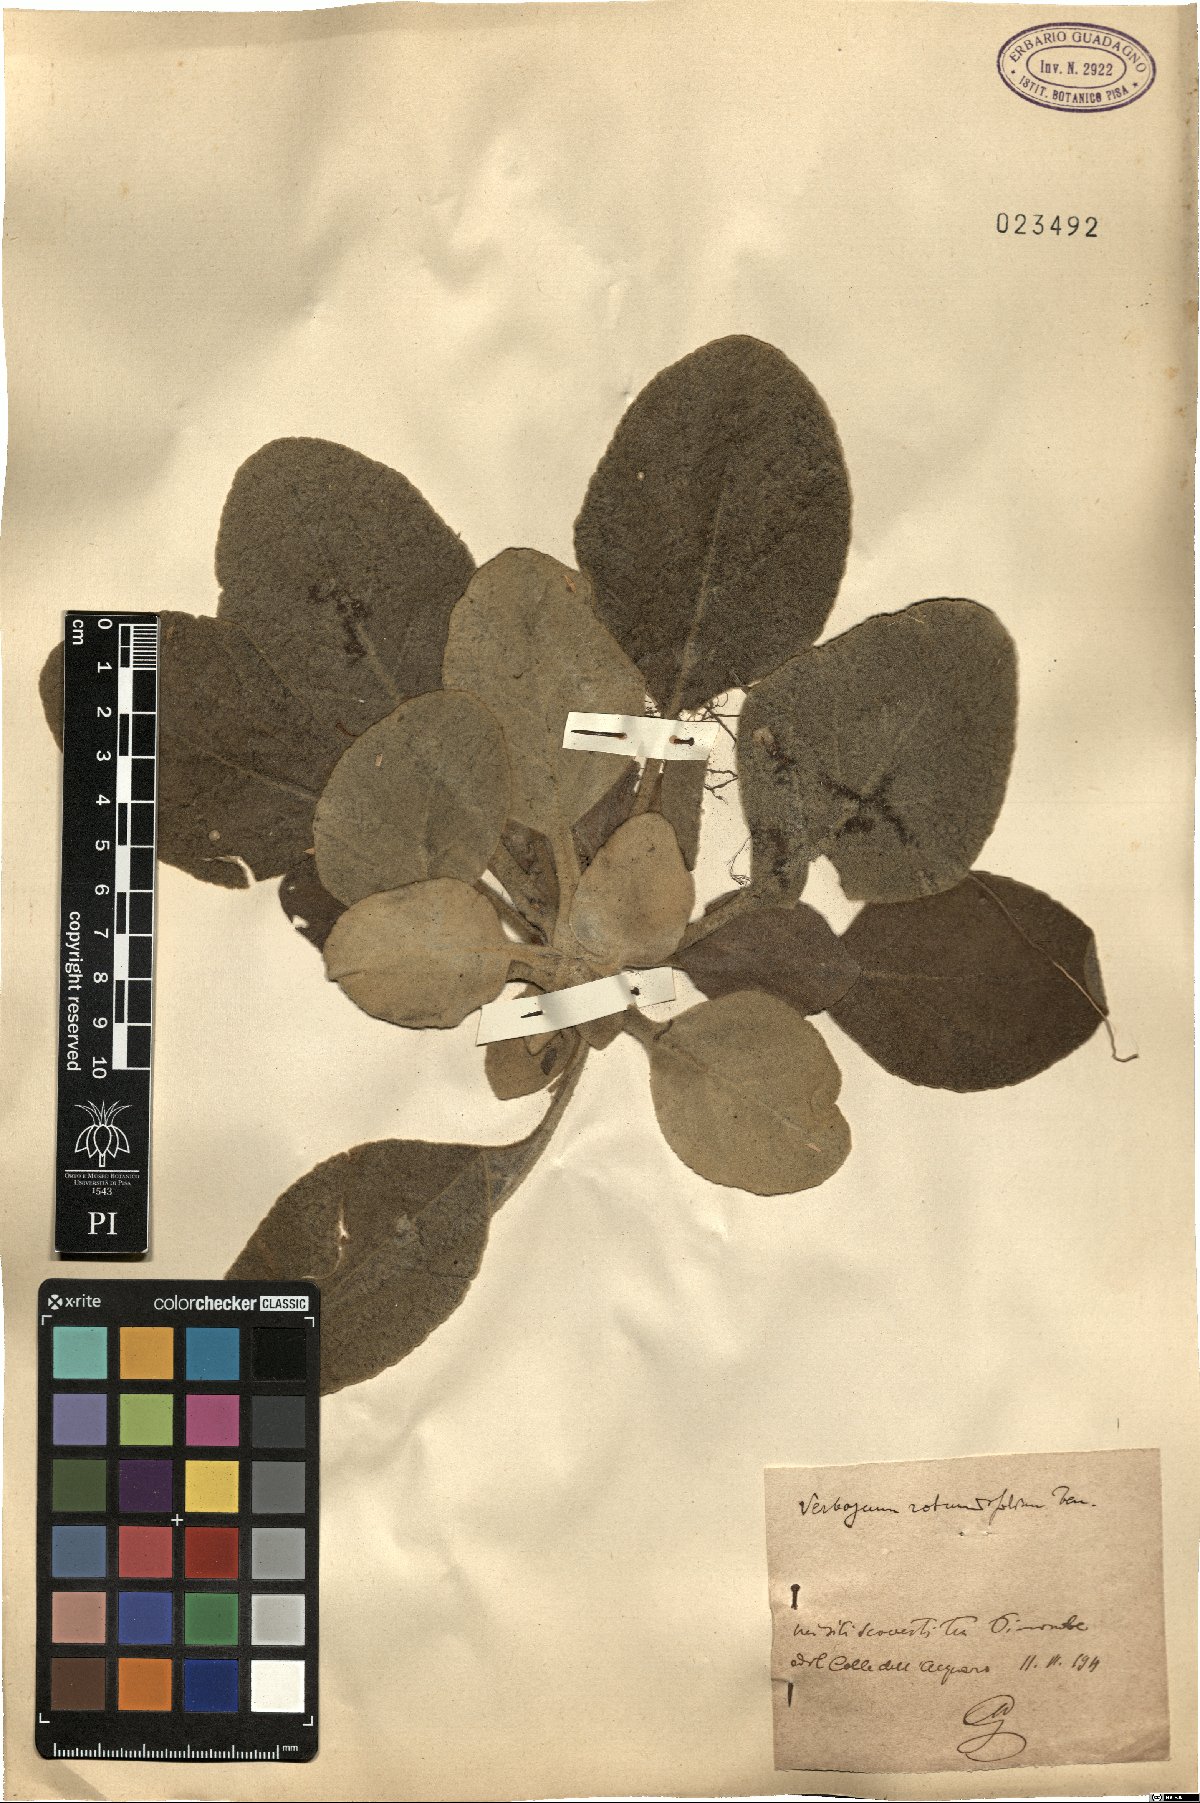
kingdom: Plantae
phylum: Tracheophyta
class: Magnoliopsida
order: Lamiales
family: Scrophulariaceae
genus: Verbascum
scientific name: Verbascum rotundifolium
